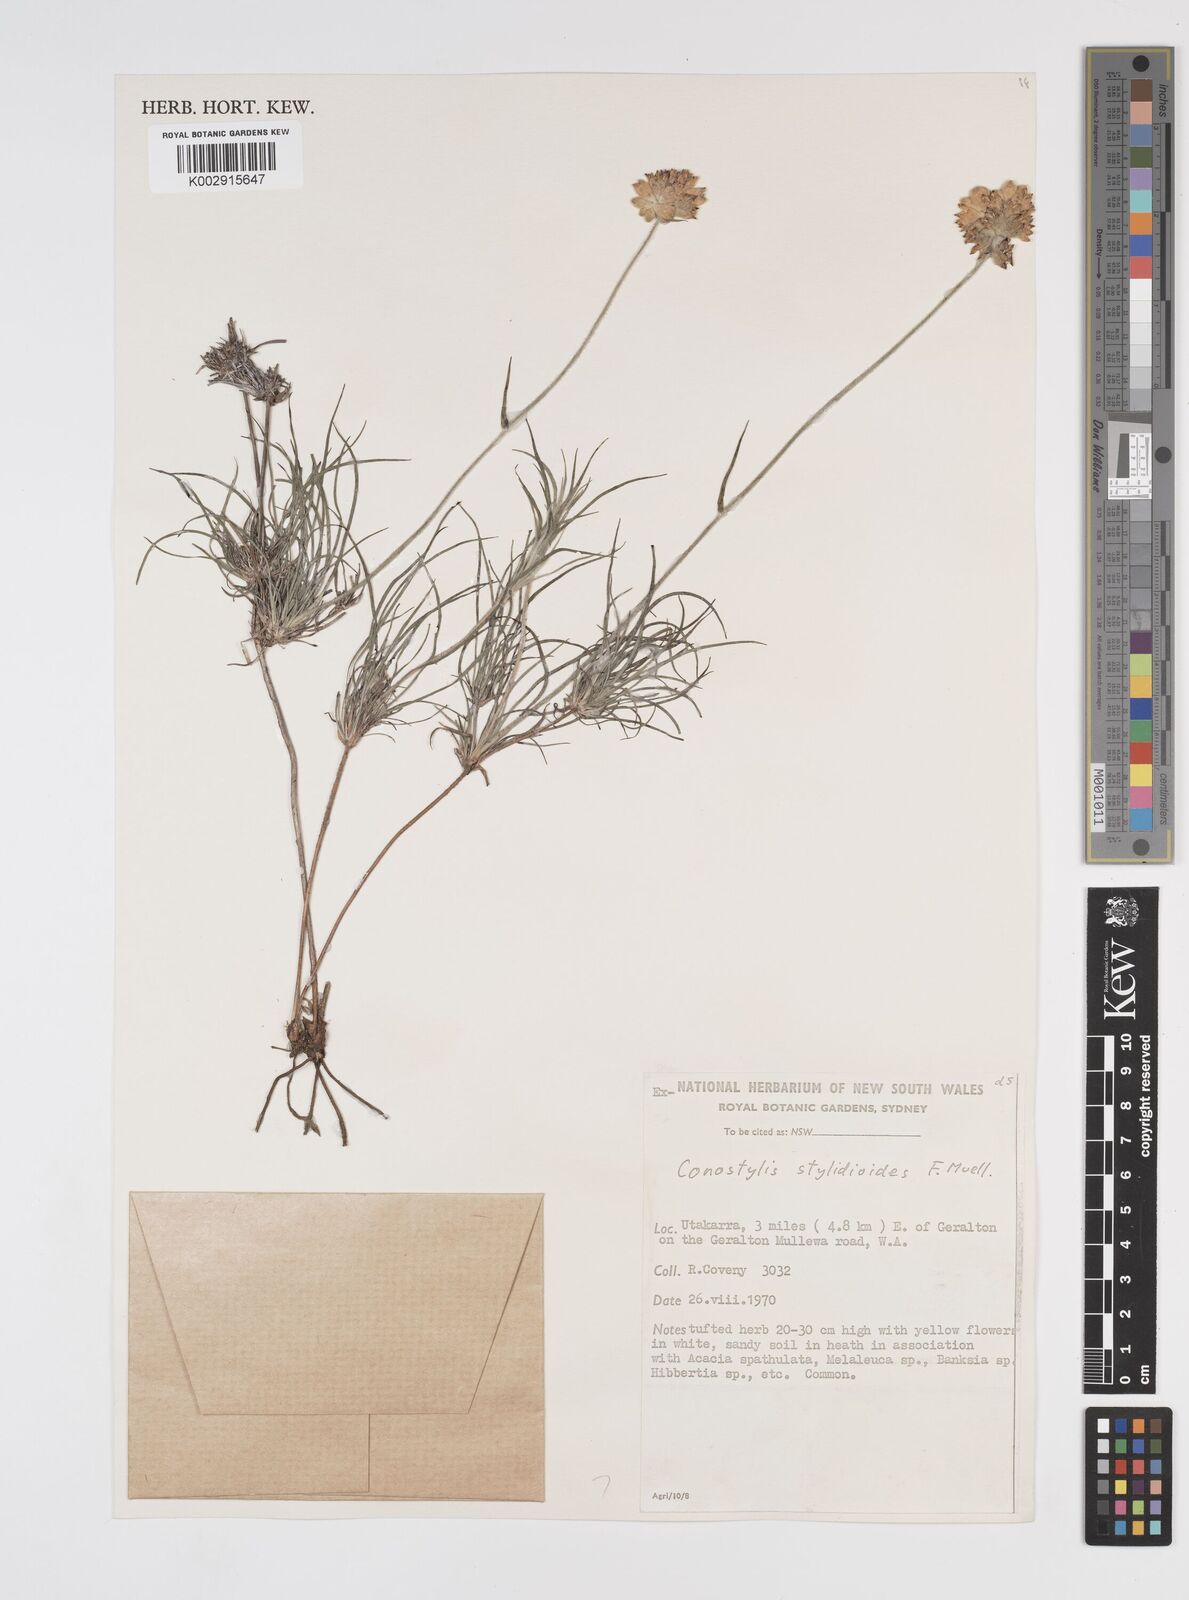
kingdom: Plantae
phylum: Tracheophyta
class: Liliopsida
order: Commelinales
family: Haemodoraceae
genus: Conostylis
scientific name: Conostylis stylidioides
